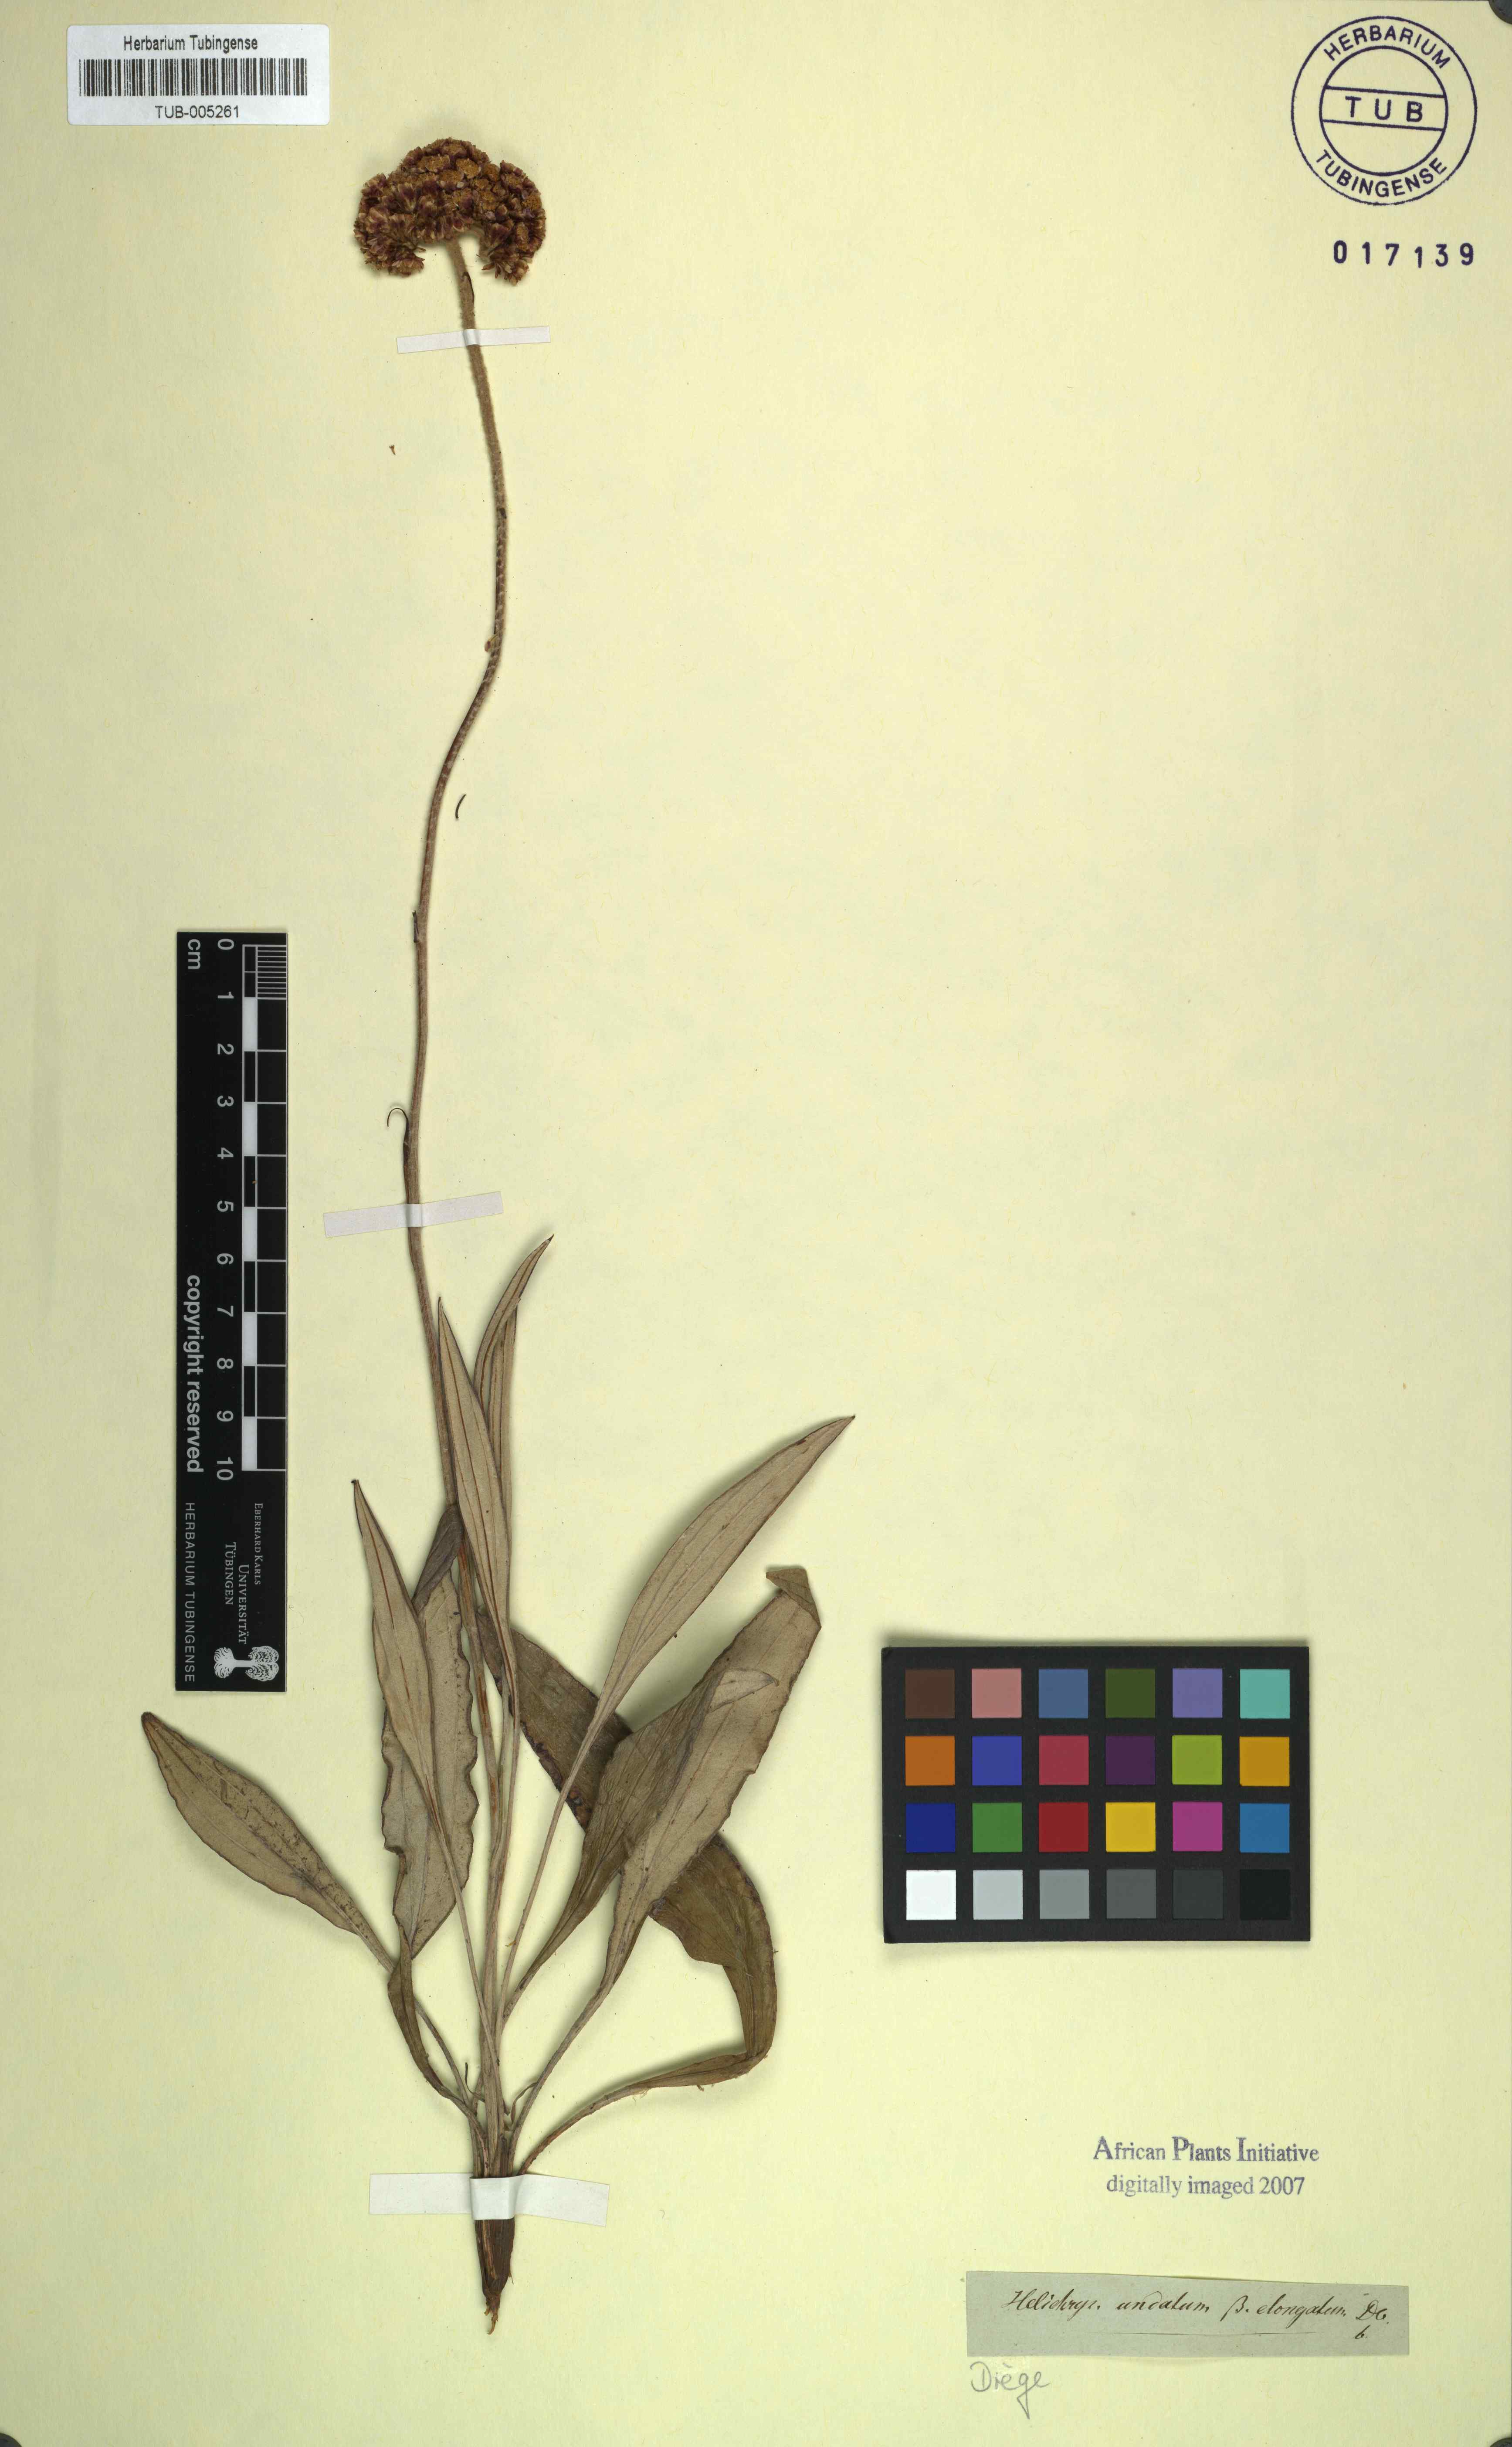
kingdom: Plantae
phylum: Tracheophyta
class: Magnoliopsida
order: Asterales
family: Asteraceae
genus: Helichrysum
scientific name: Helichrysum nudifolium
